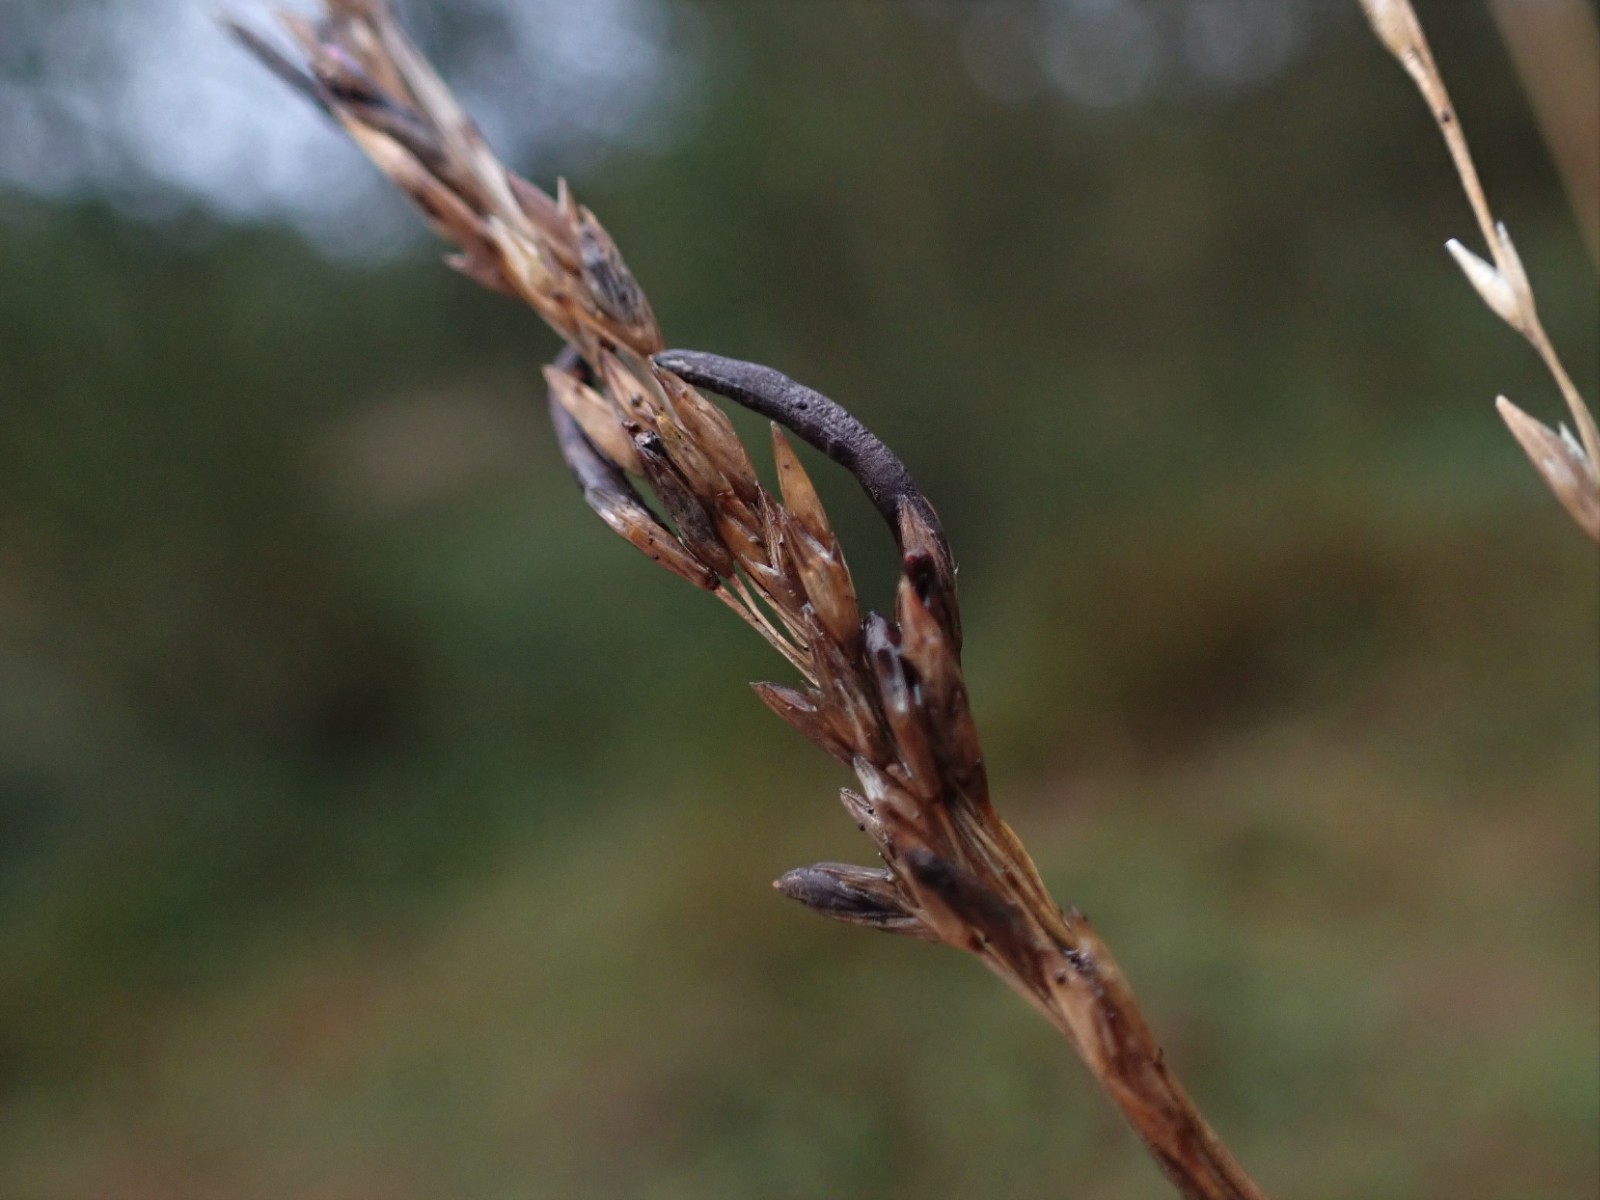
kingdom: Fungi
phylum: Ascomycota
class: Sordariomycetes
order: Hypocreales
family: Clavicipitaceae
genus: Claviceps
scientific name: Claviceps purpurea
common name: almindelig meldrøjer
